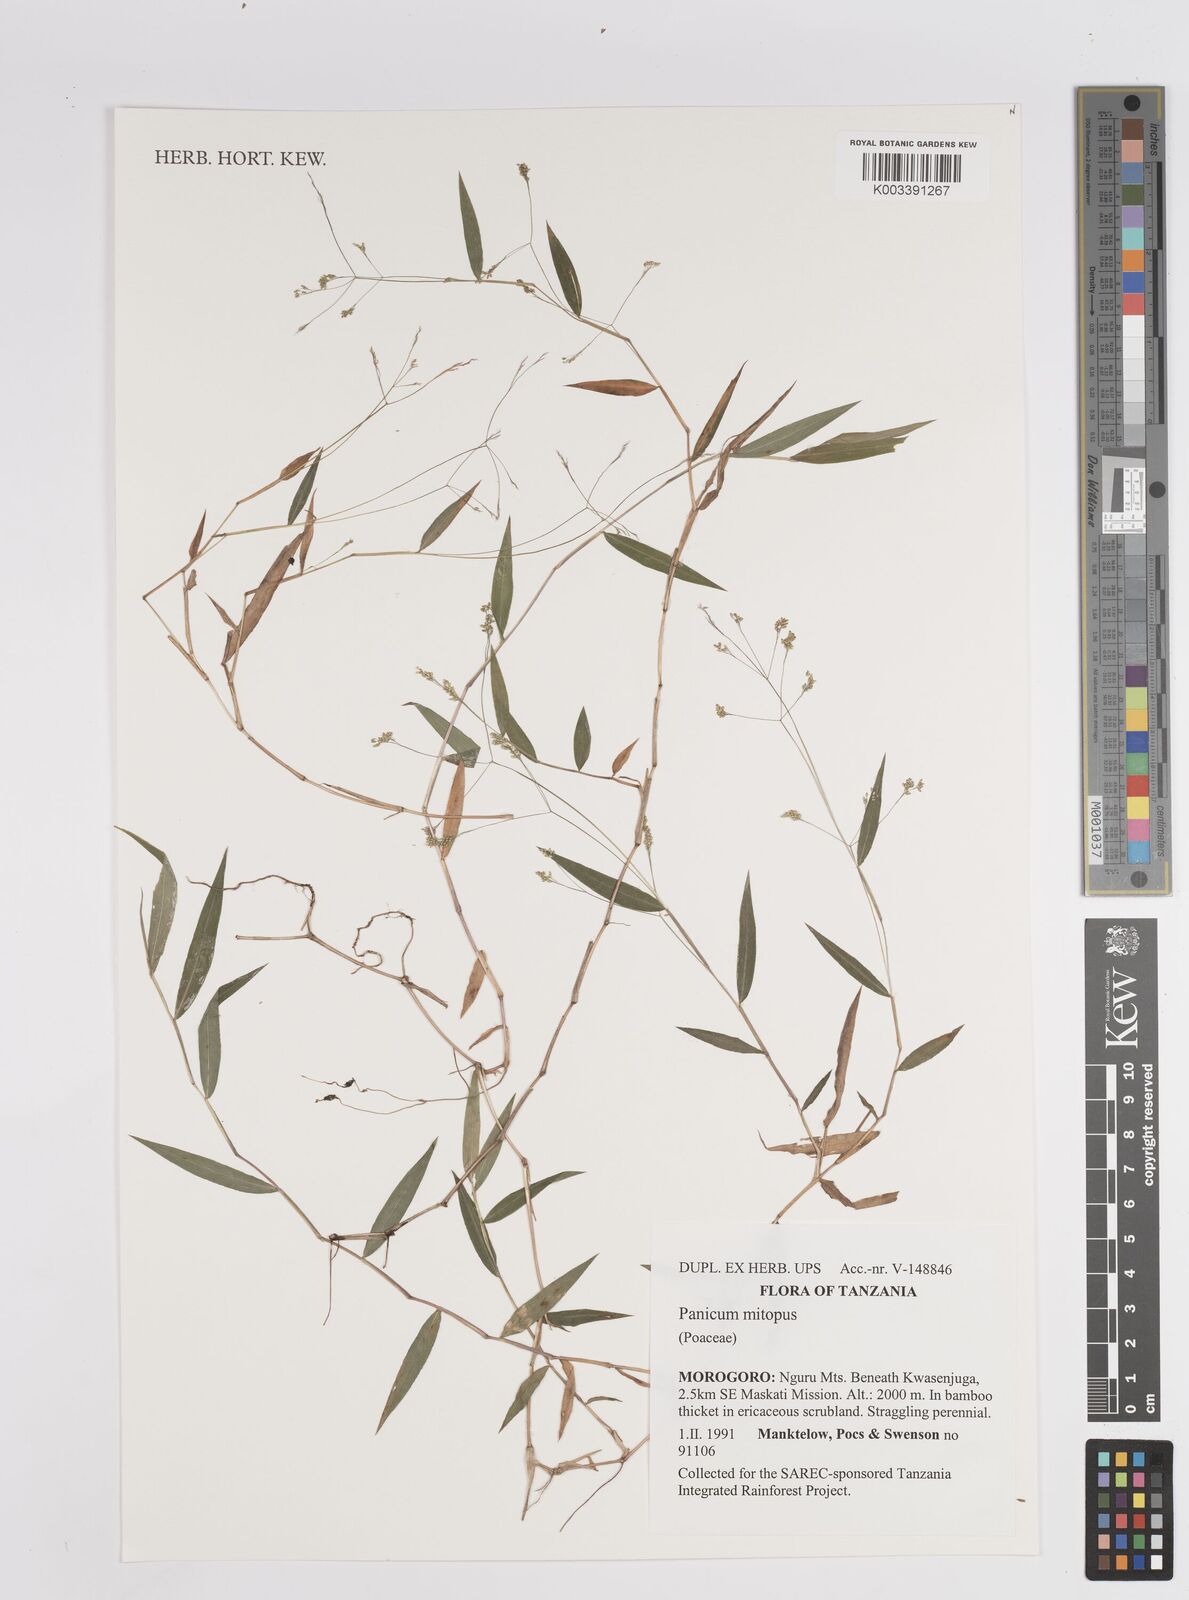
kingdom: Plantae
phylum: Tracheophyta
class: Liliopsida
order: Poales
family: Poaceae
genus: Panicum
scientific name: Panicum mitopus
